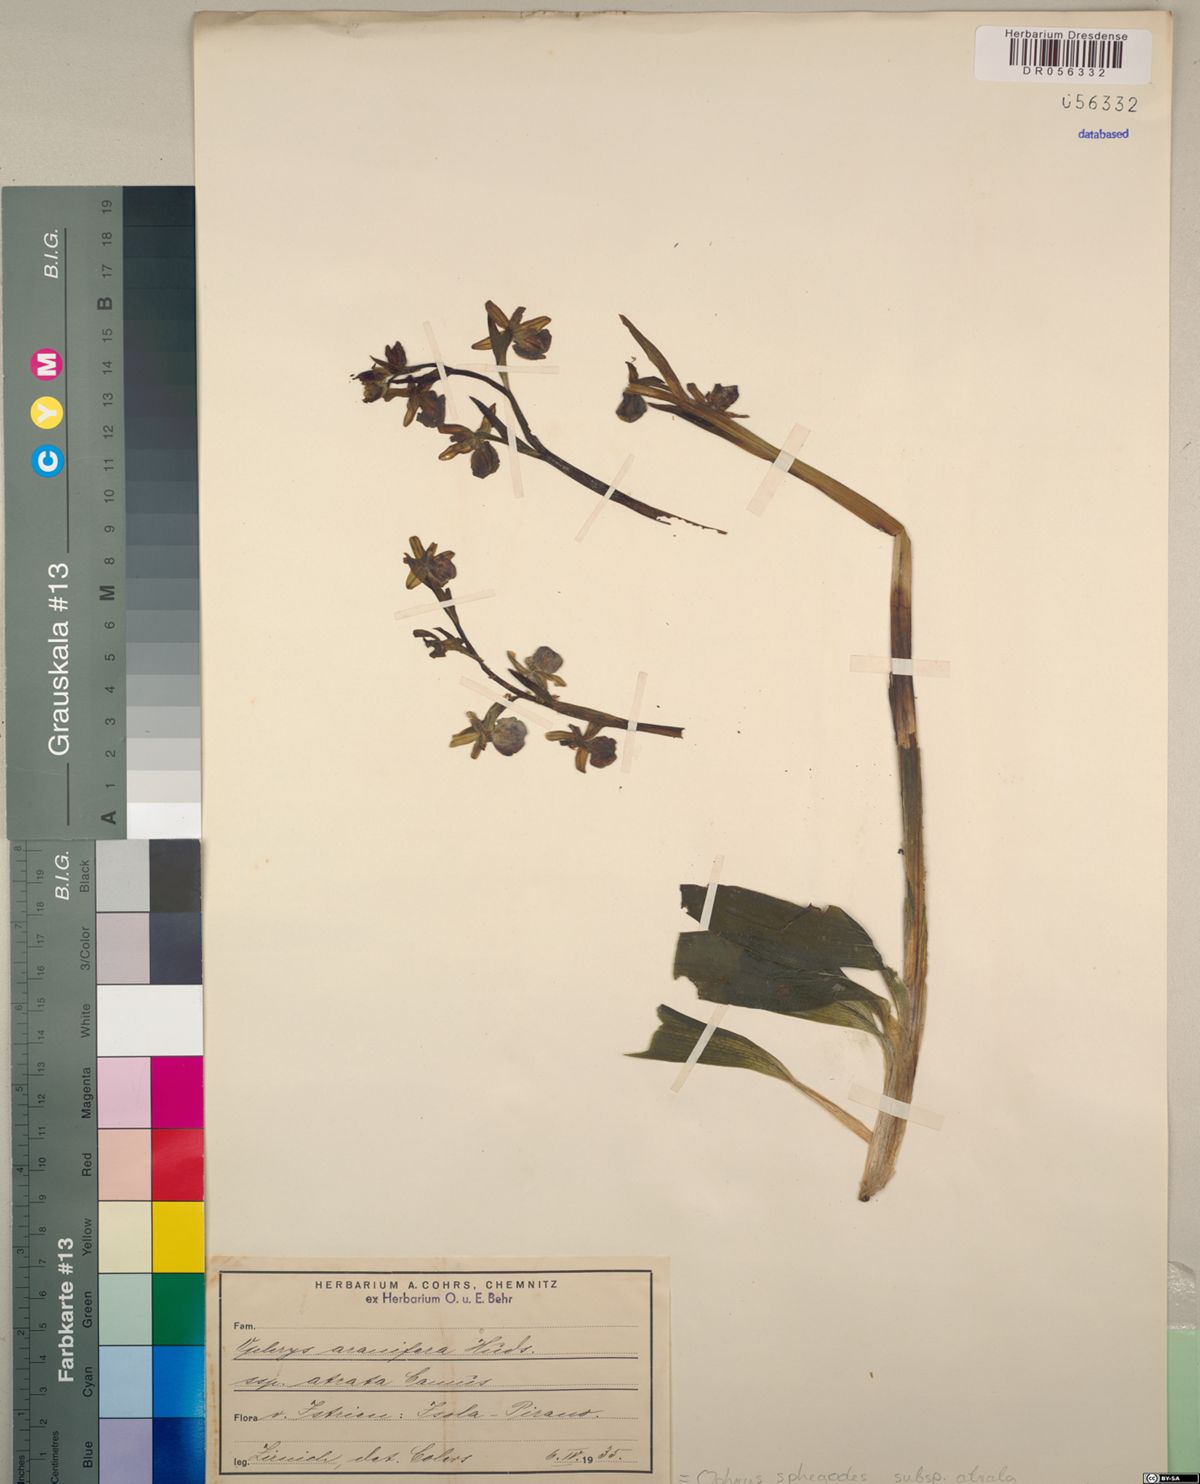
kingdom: Plantae
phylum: Tracheophyta
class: Liliopsida
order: Asparagales
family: Orchidaceae
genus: Ophrys
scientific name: Ophrys sphegodes
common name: Early spider-orchid
